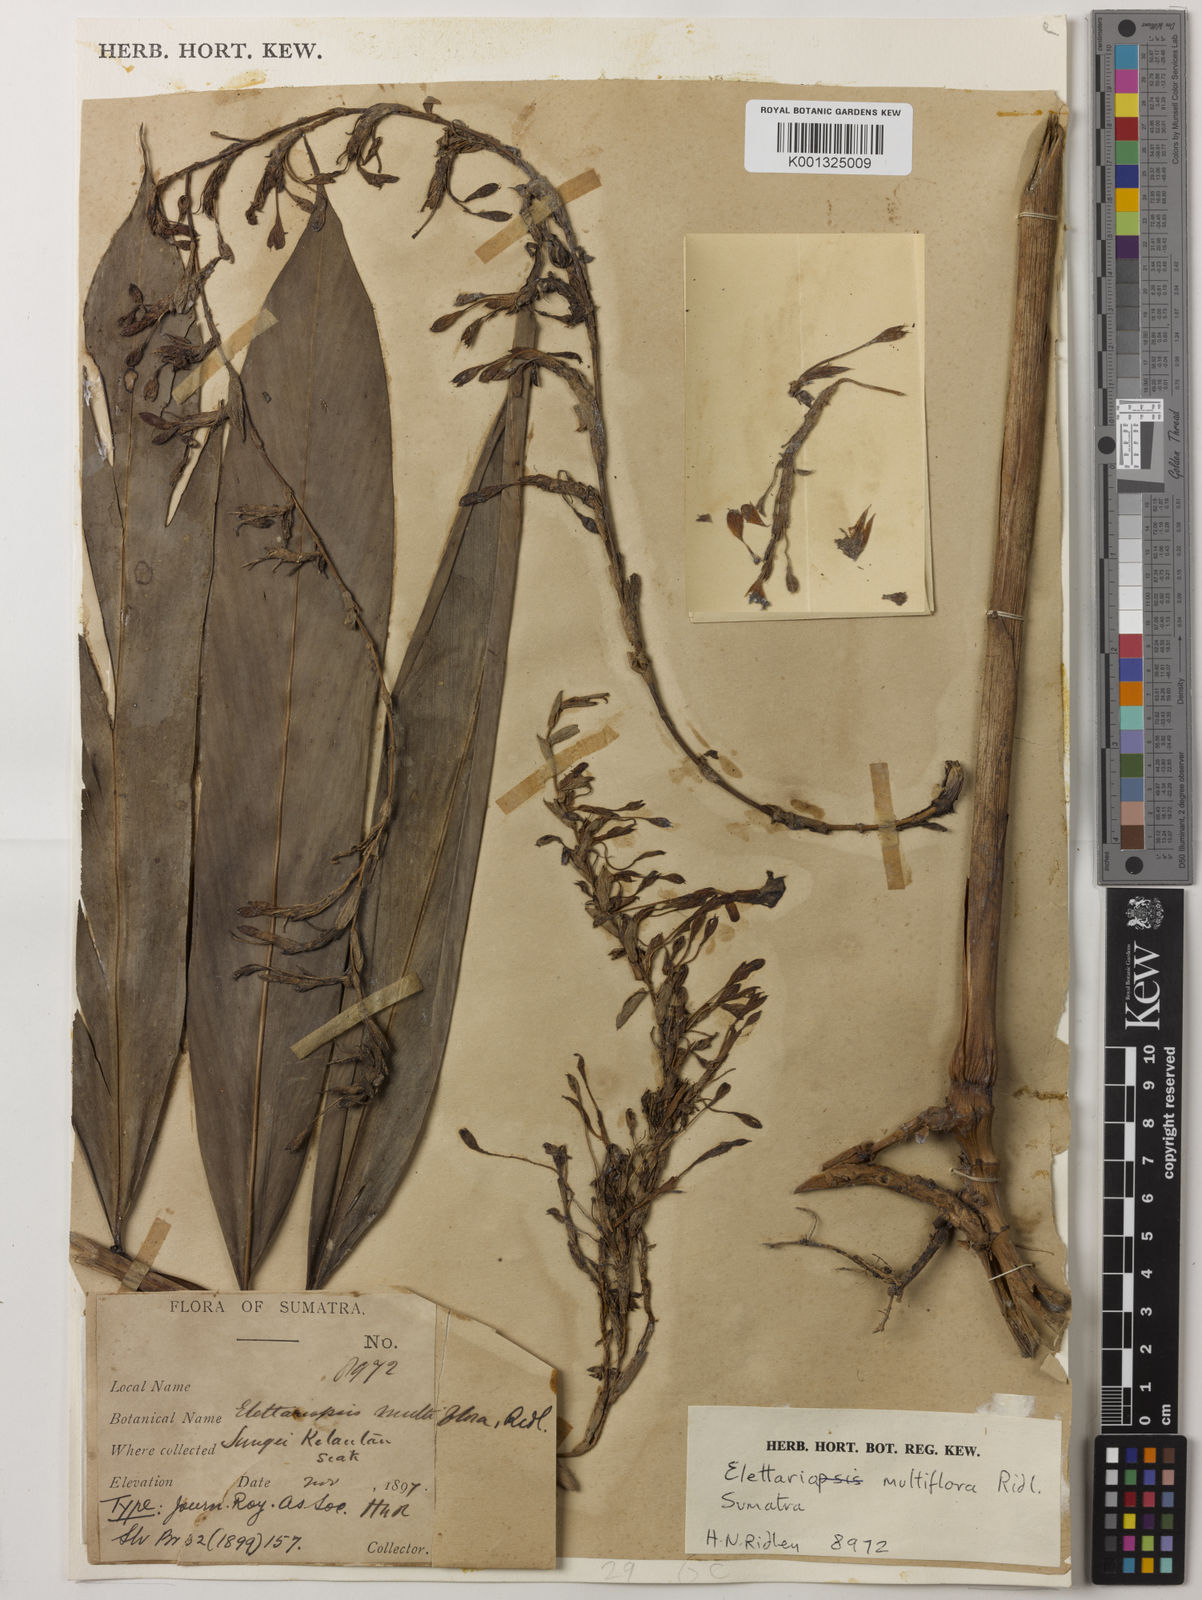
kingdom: Plantae
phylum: Tracheophyta
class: Liliopsida
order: Zingiberales
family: Zingiberaceae
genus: Sulettaria
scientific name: Sulettaria multiflora
